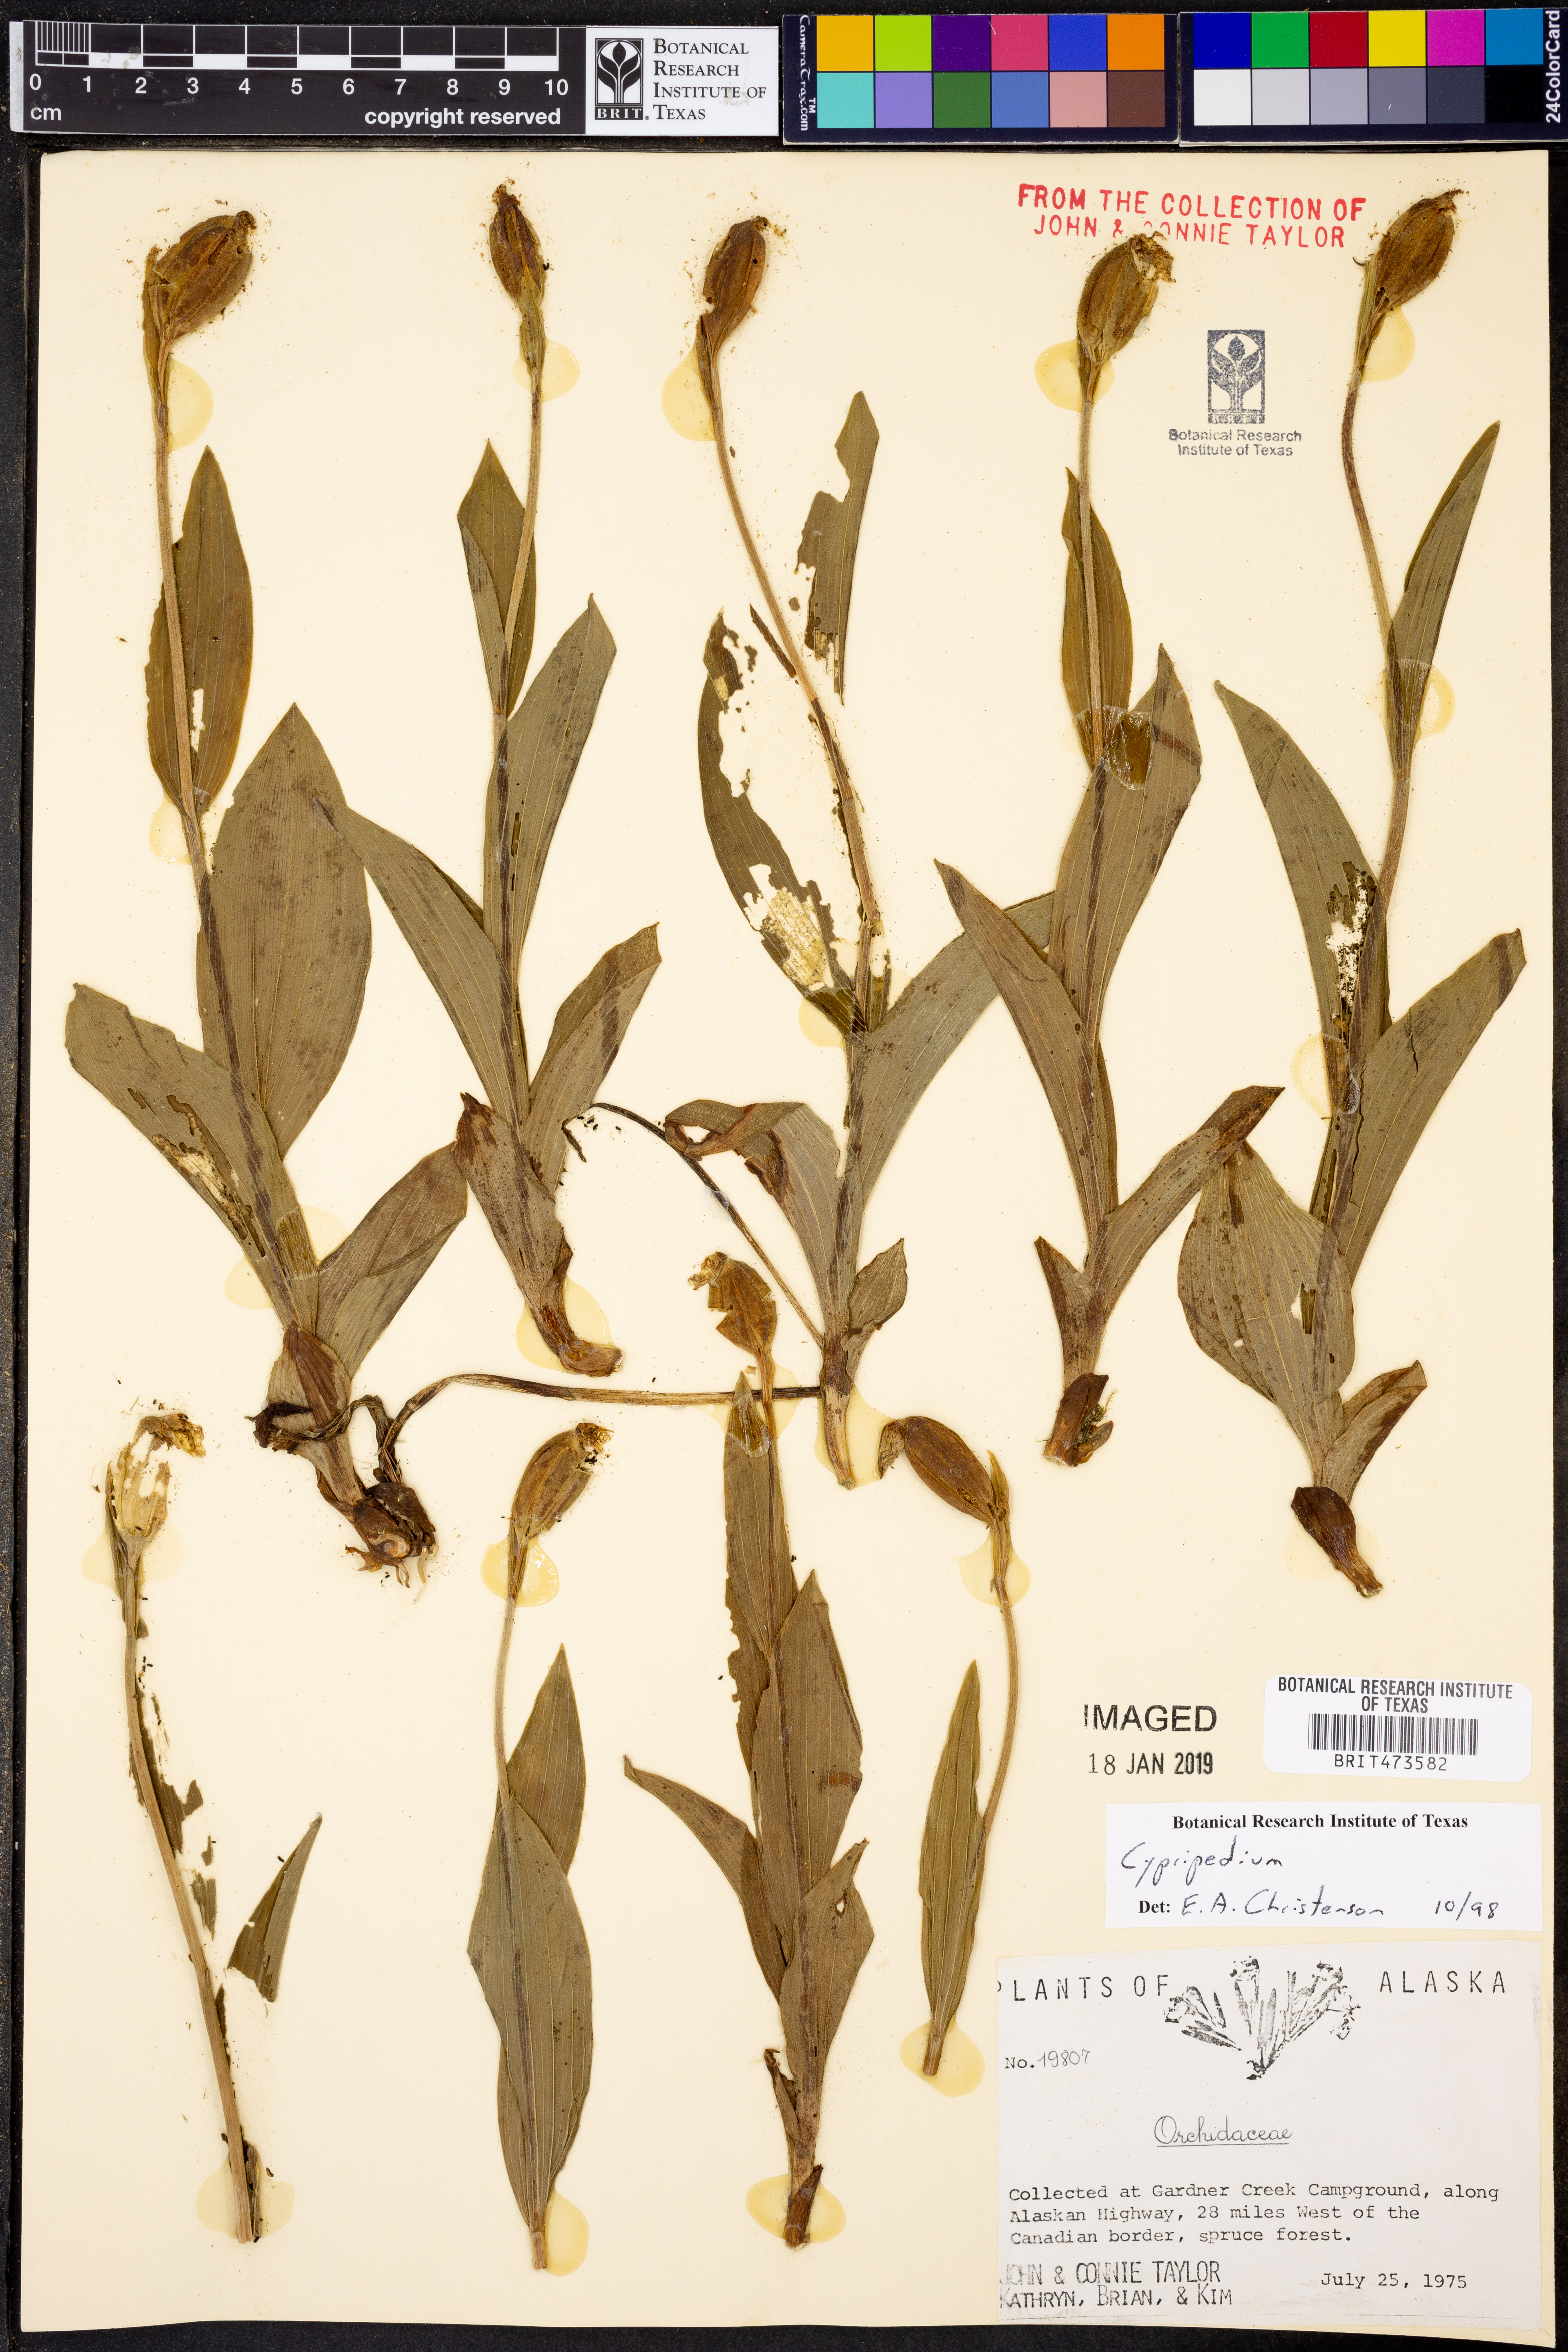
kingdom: Plantae
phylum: Tracheophyta
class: Liliopsida
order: Asparagales
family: Orchidaceae
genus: Cypripedium
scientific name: Cypripedium
